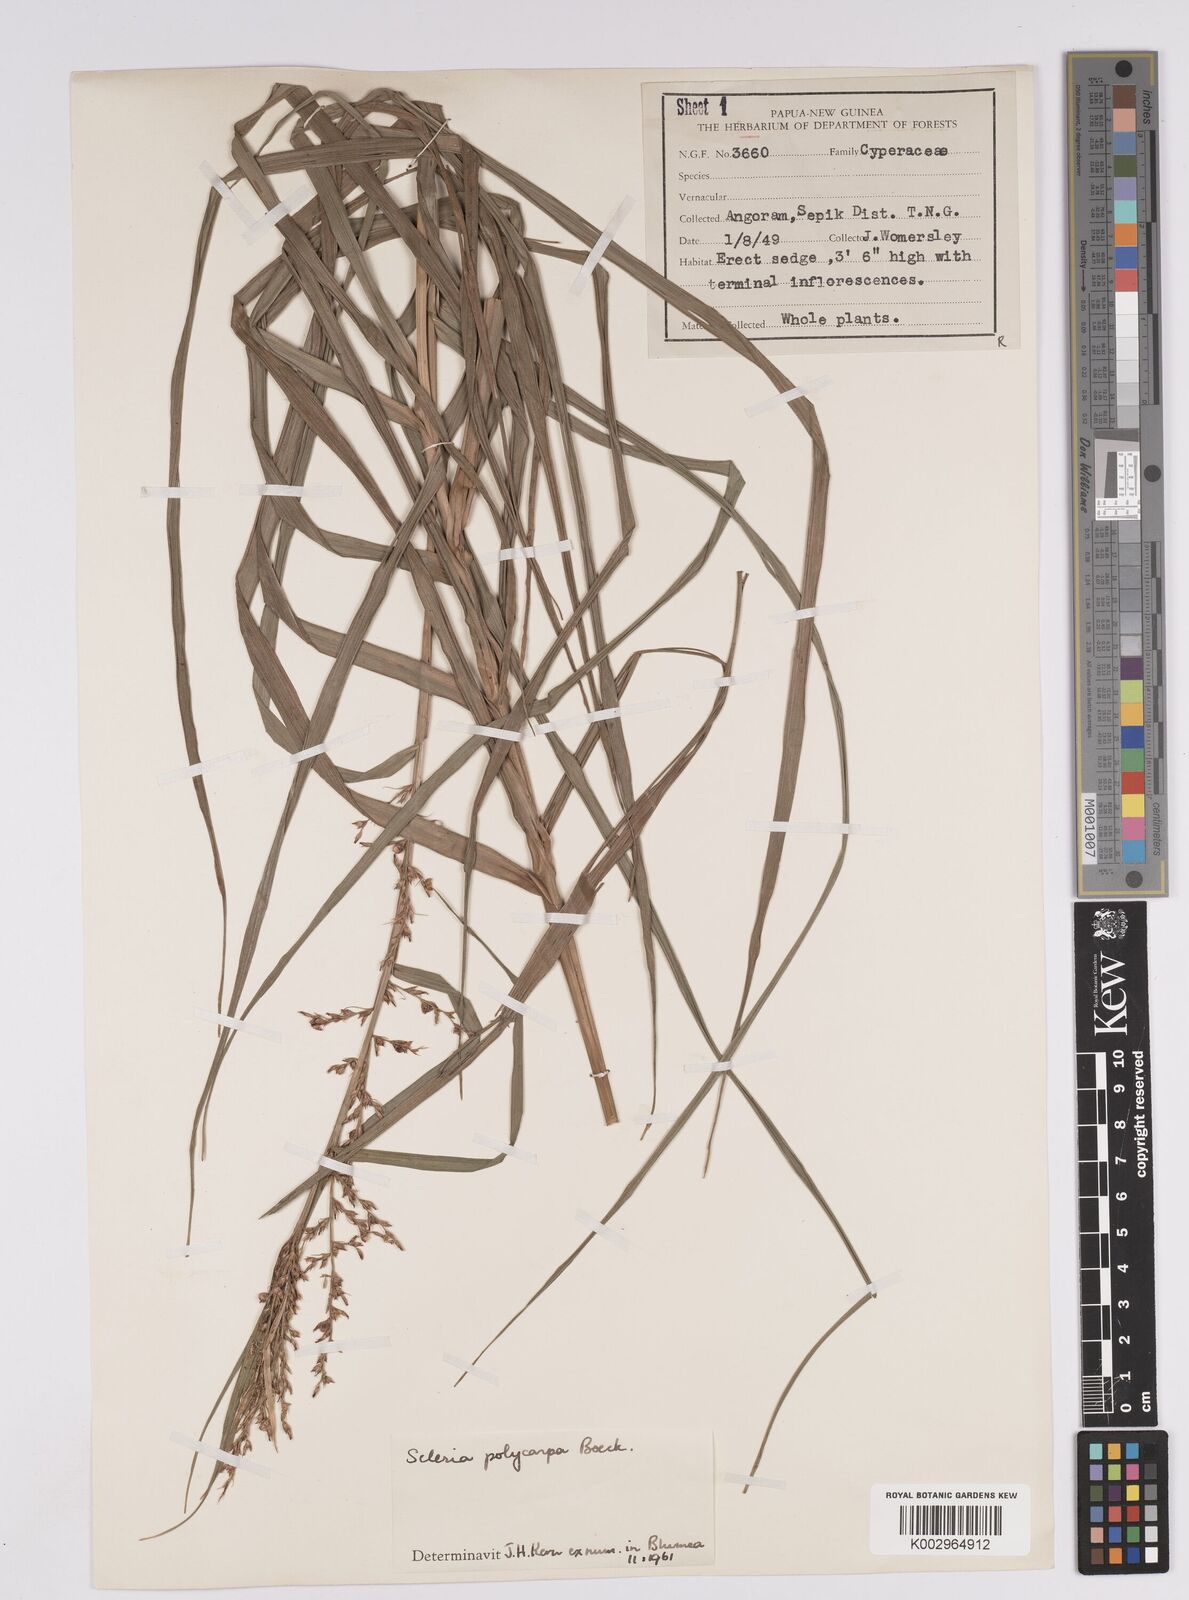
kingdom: Plantae
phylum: Tracheophyta
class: Liliopsida
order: Poales
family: Cyperaceae
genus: Scleria
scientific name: Scleria polycarpa
